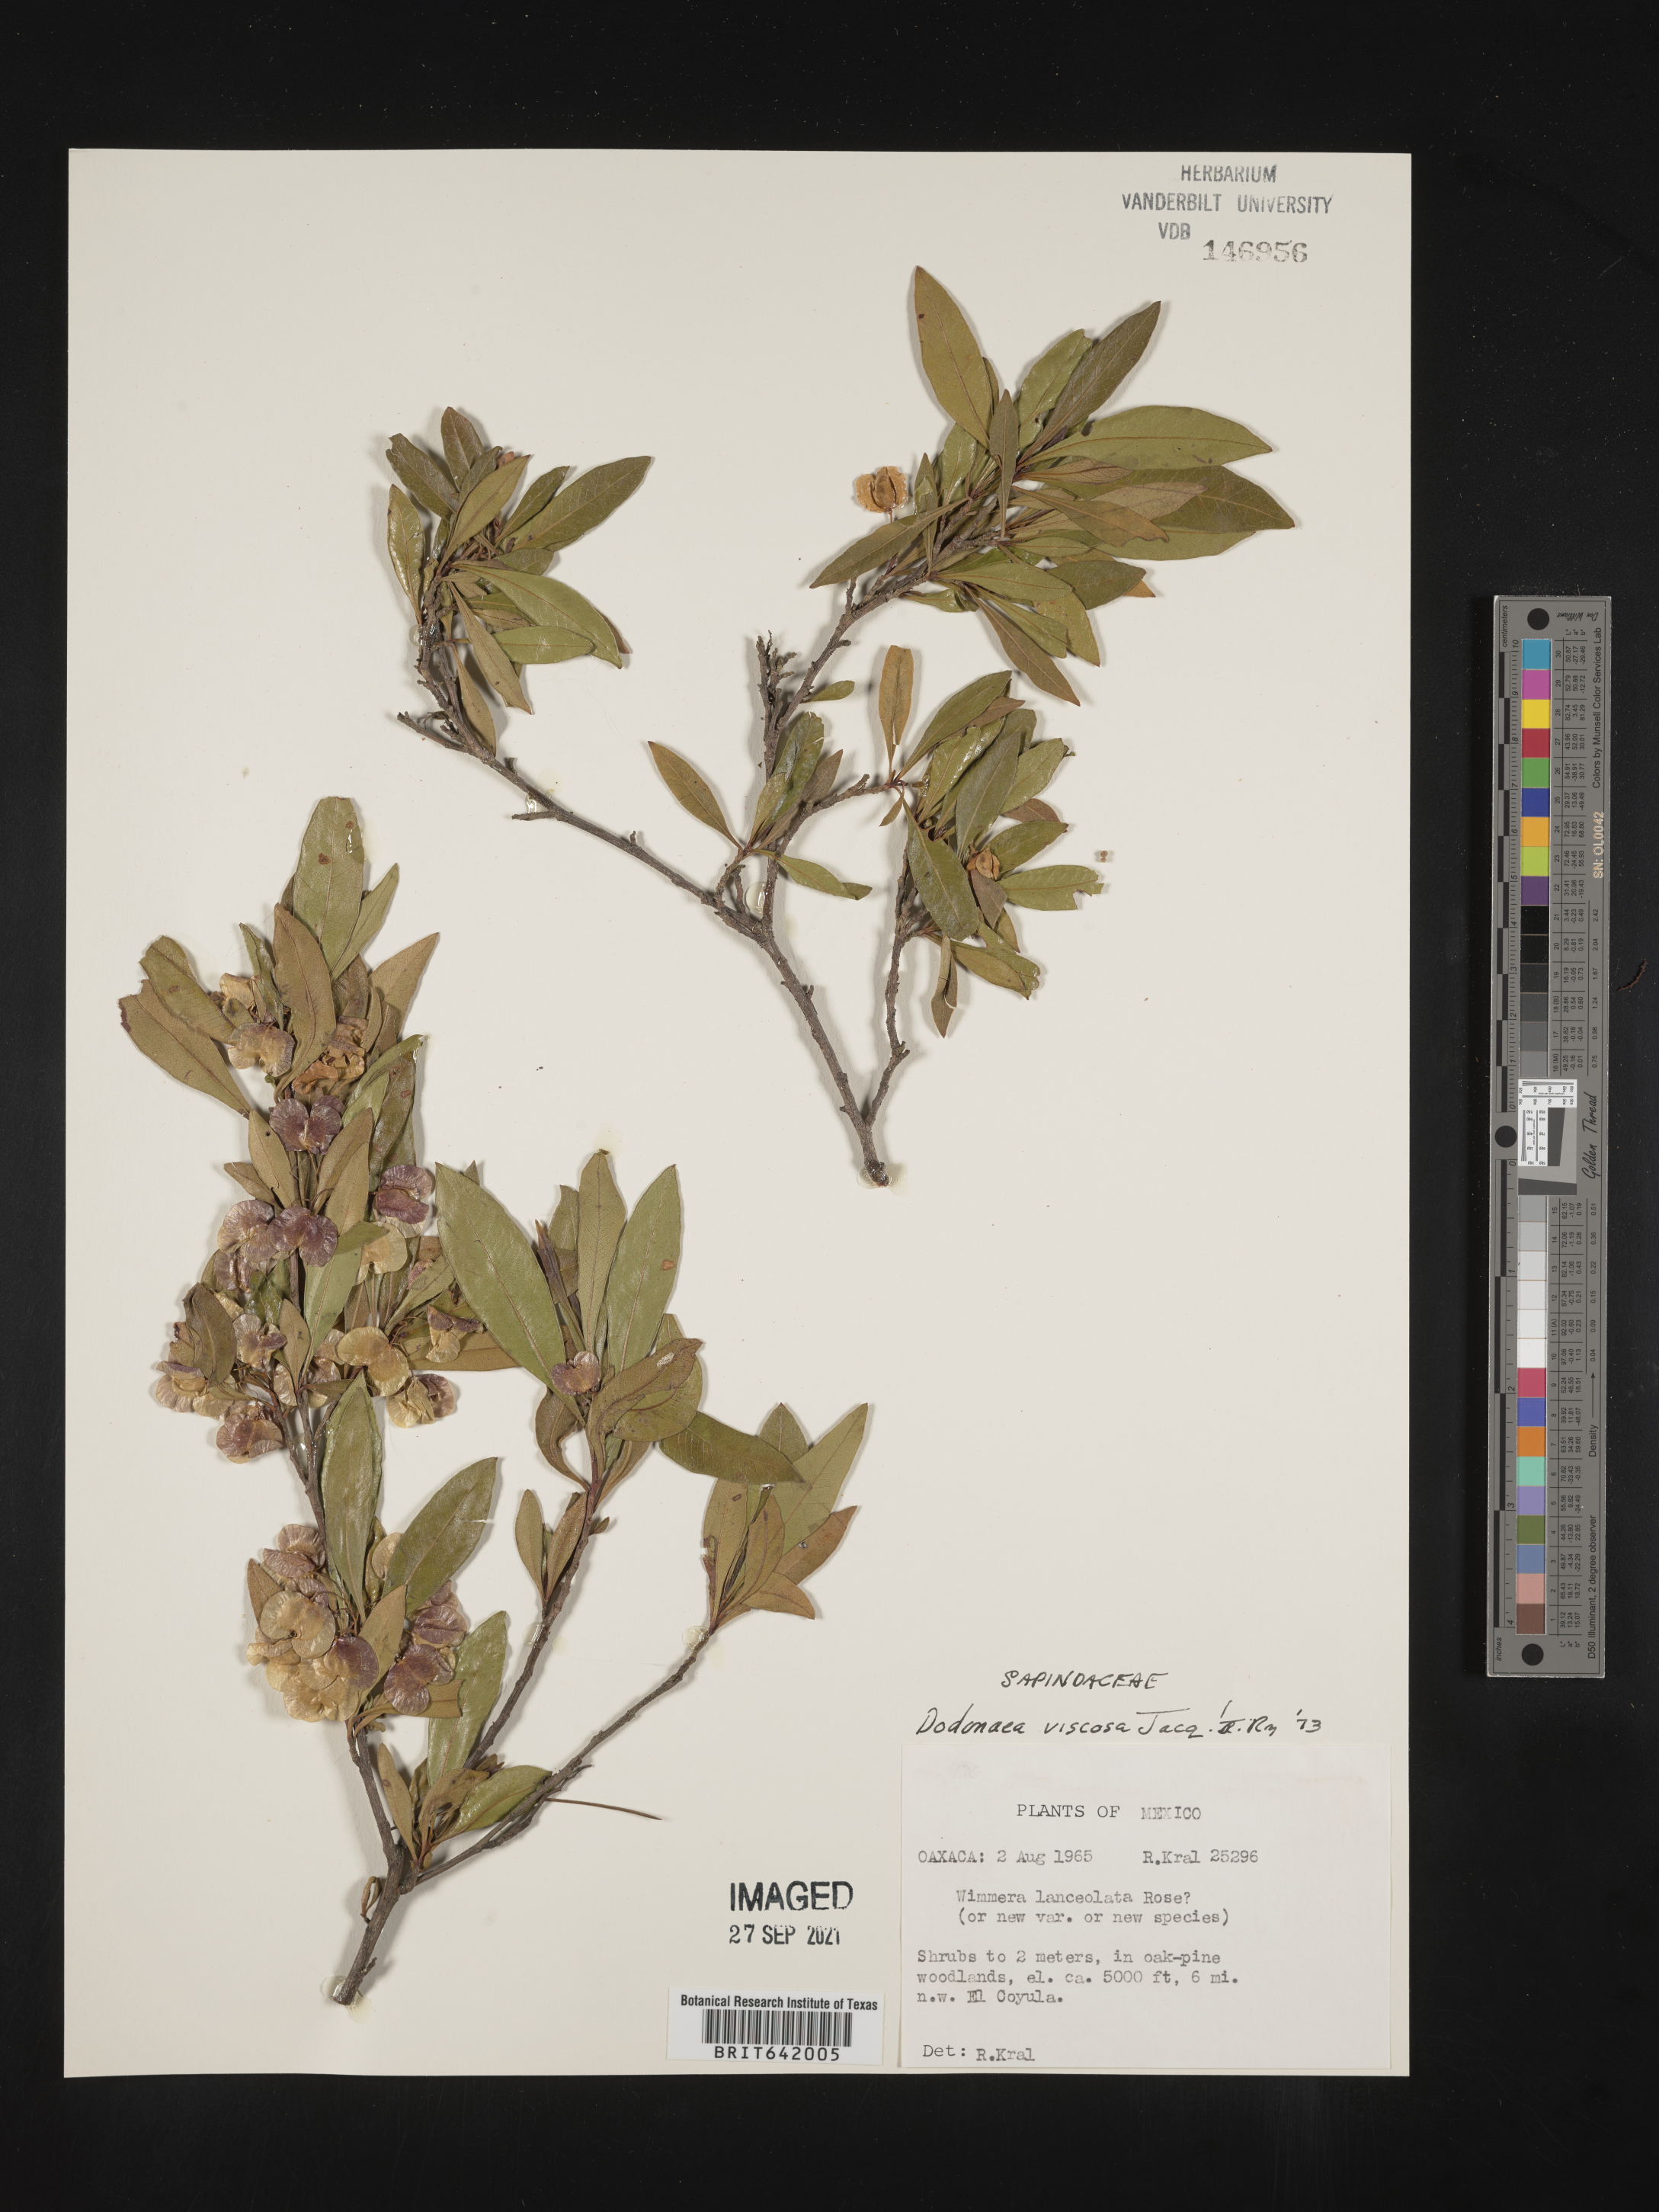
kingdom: Plantae
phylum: Tracheophyta
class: Magnoliopsida
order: Sapindales
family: Sapindaceae
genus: Dodonaea
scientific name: Dodonaea
